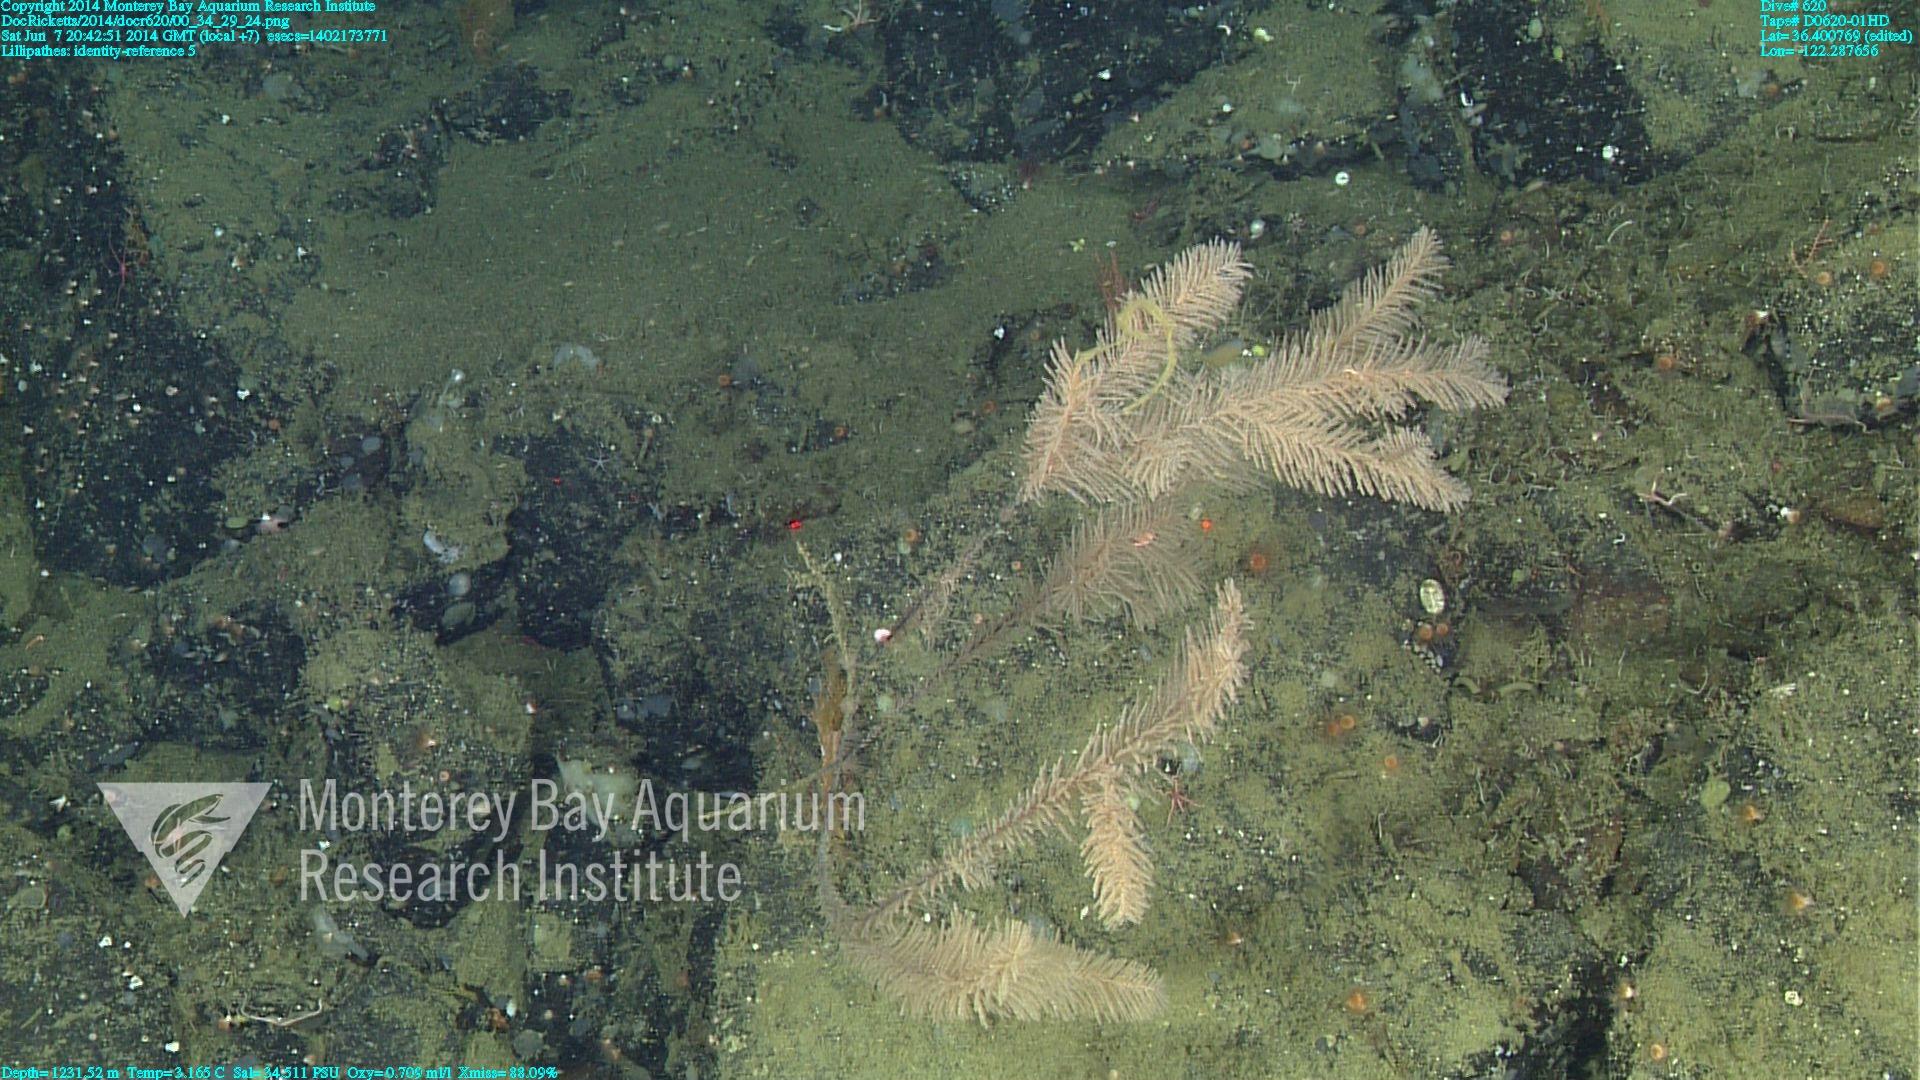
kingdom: Animalia
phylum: Cnidaria
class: Anthozoa
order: Antipatharia
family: Schizopathidae
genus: Lillipathes
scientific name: Lillipathes
